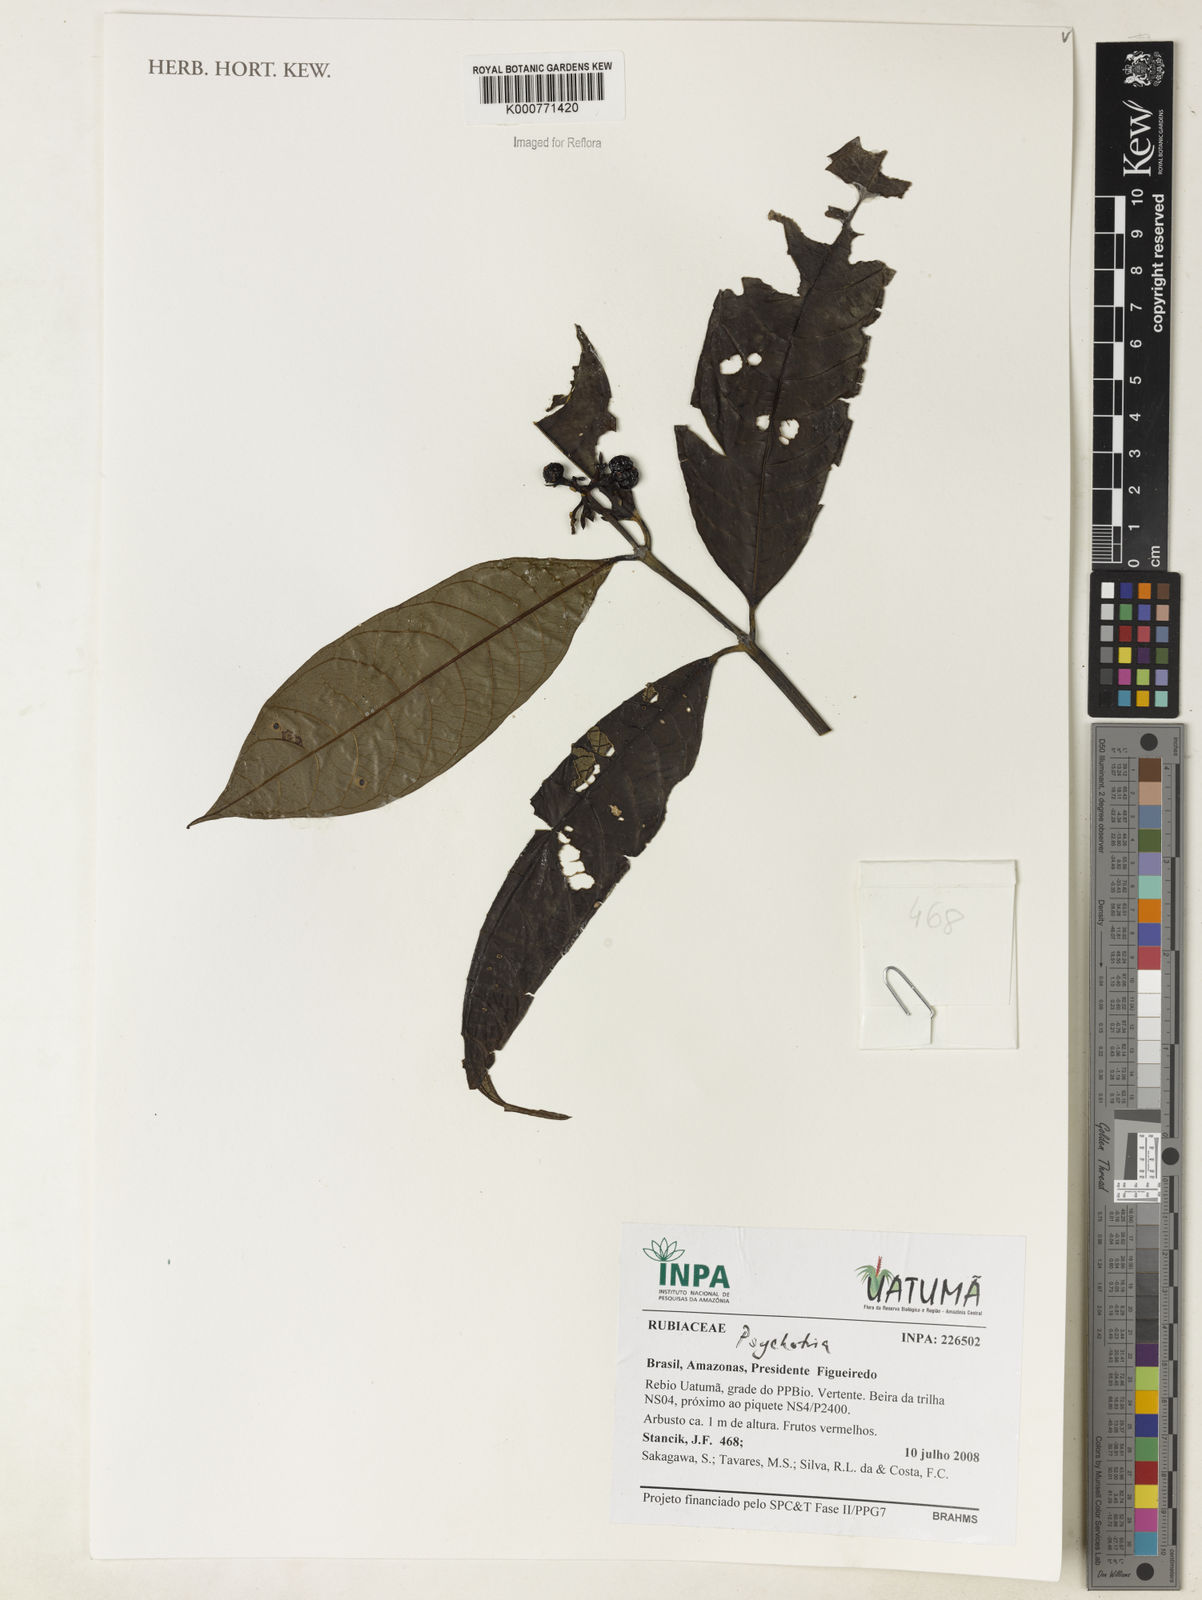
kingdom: Plantae
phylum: Tracheophyta
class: Magnoliopsida
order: Gentianales
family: Rubiaceae
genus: Palicourea
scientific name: Palicourea
